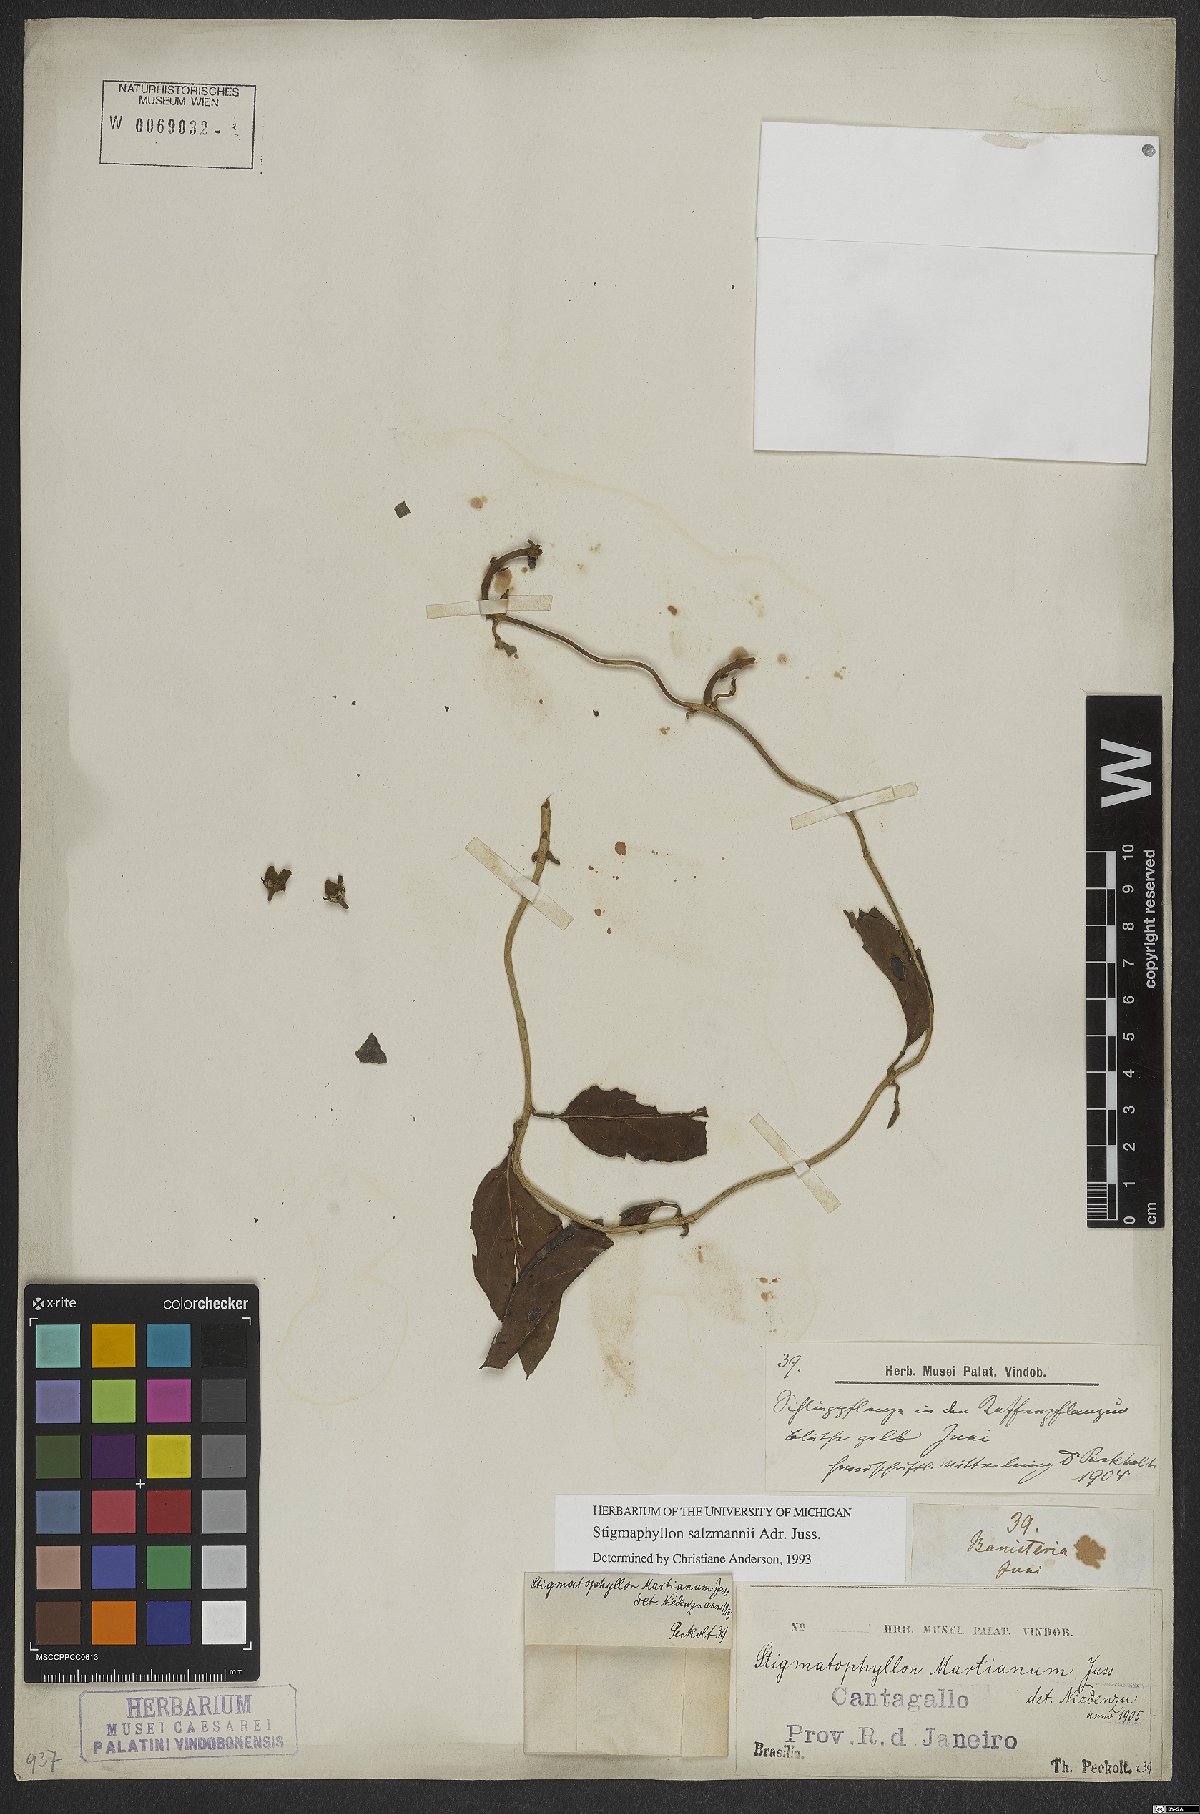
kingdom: Plantae
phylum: Tracheophyta
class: Magnoliopsida
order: Malpighiales
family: Malpighiaceae
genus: Stigmaphyllon
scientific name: Stigmaphyllon salzmannii
